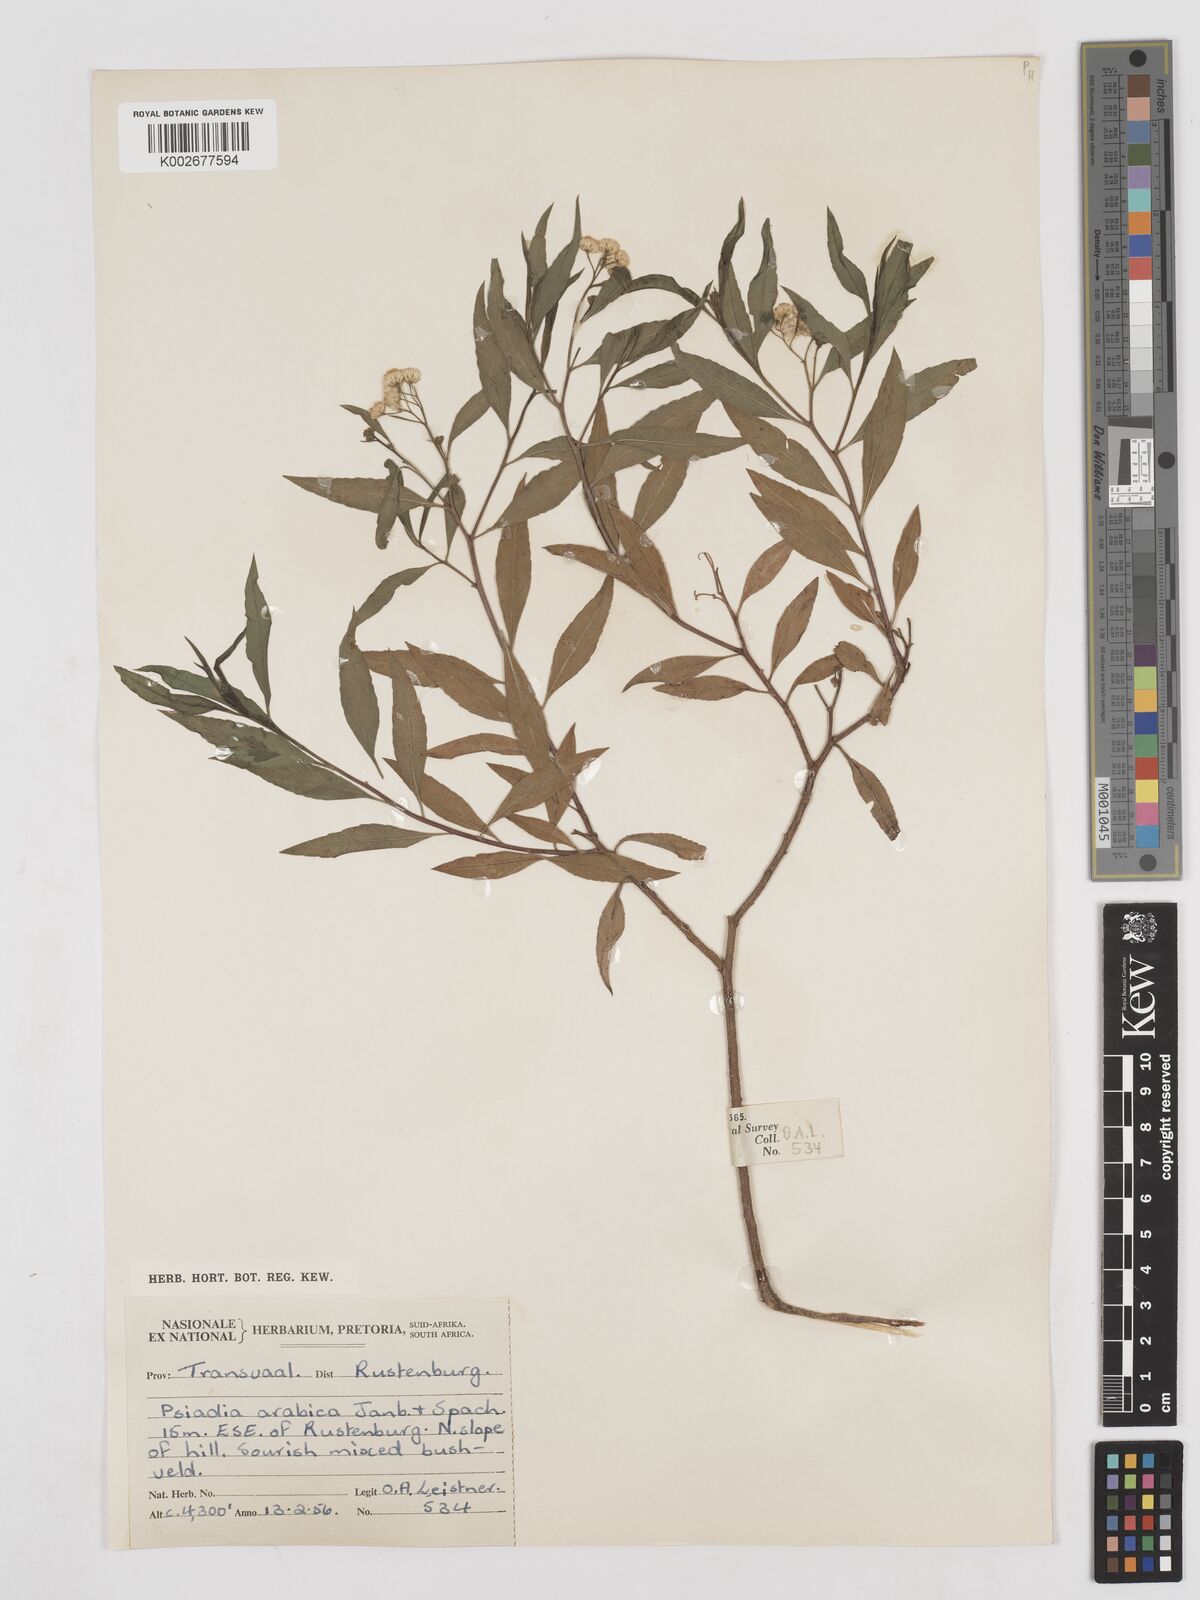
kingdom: Plantae
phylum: Tracheophyta
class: Magnoliopsida
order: Asterales
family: Asteraceae
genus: Psiadia
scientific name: Psiadia punctulata
